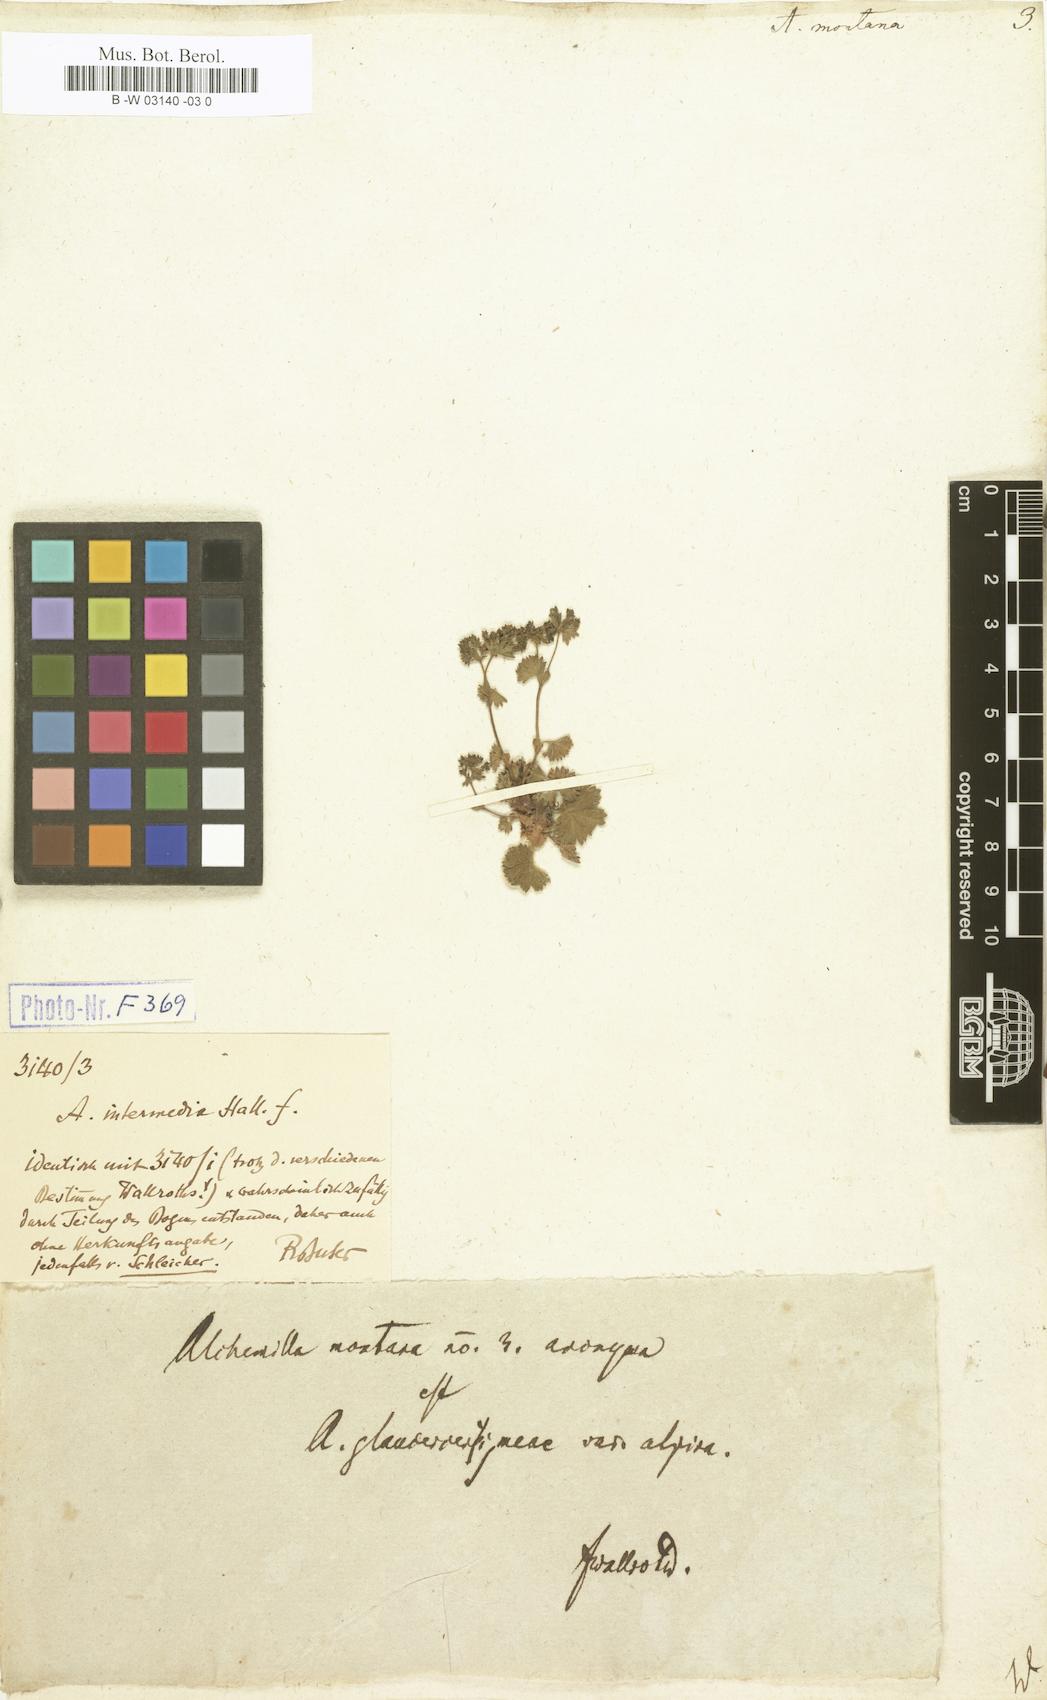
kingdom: Plantae
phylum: Tracheophyta
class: Magnoliopsida
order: Rosales
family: Rosaceae
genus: Alchemilla
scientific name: Alchemilla connivens
